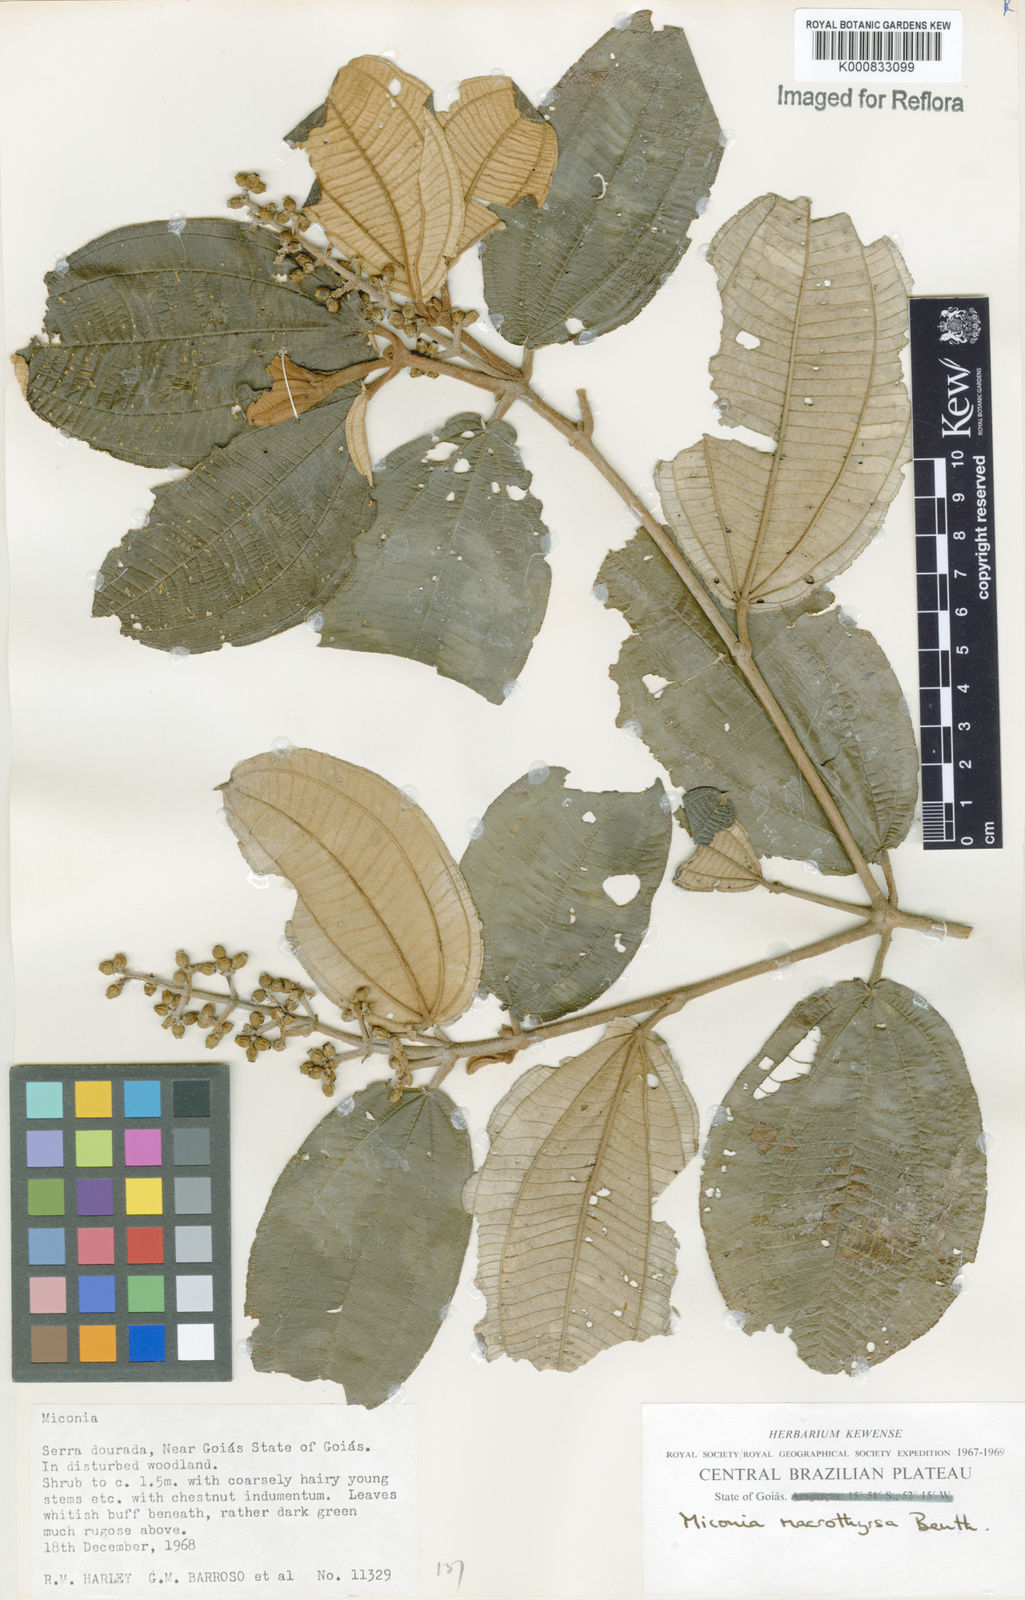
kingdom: Plantae
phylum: Tracheophyta
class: Magnoliopsida
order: Myrtales
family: Melastomataceae
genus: Miconia
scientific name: Miconia macrothyrsa
